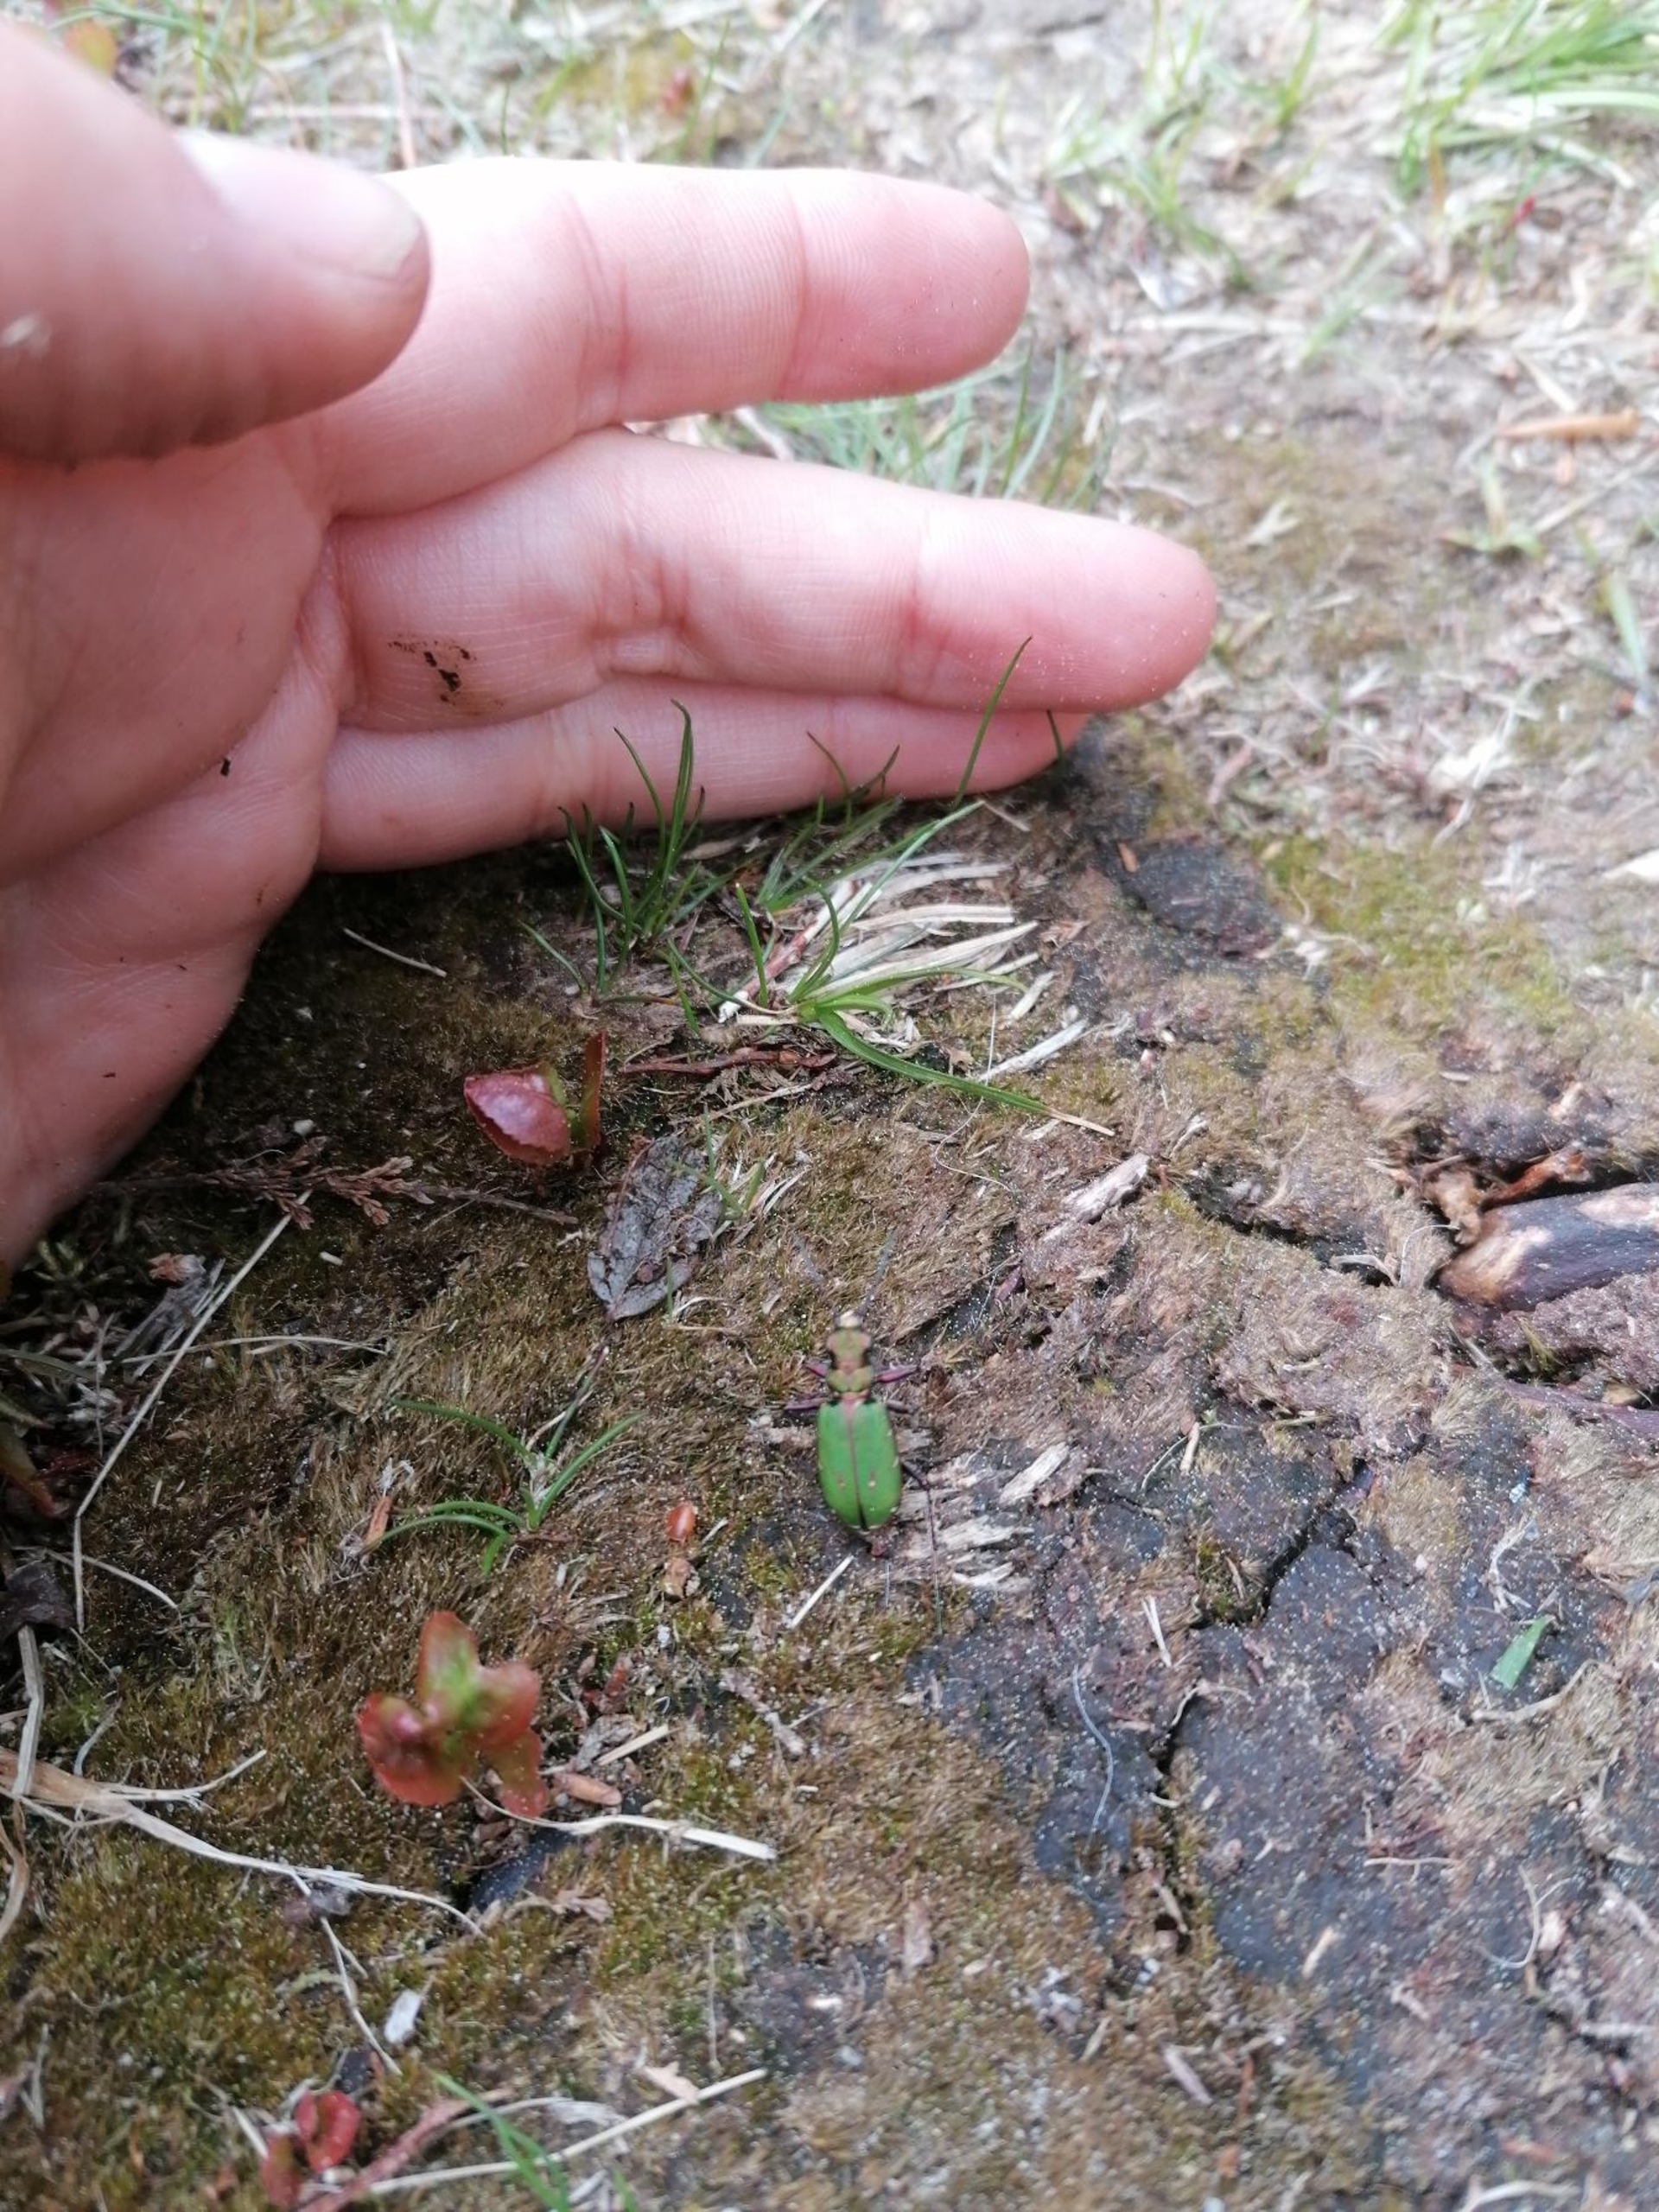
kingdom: Animalia
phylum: Arthropoda
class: Insecta
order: Coleoptera
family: Carabidae
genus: Cicindela
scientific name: Cicindela campestris
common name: Grøn sandspringer
